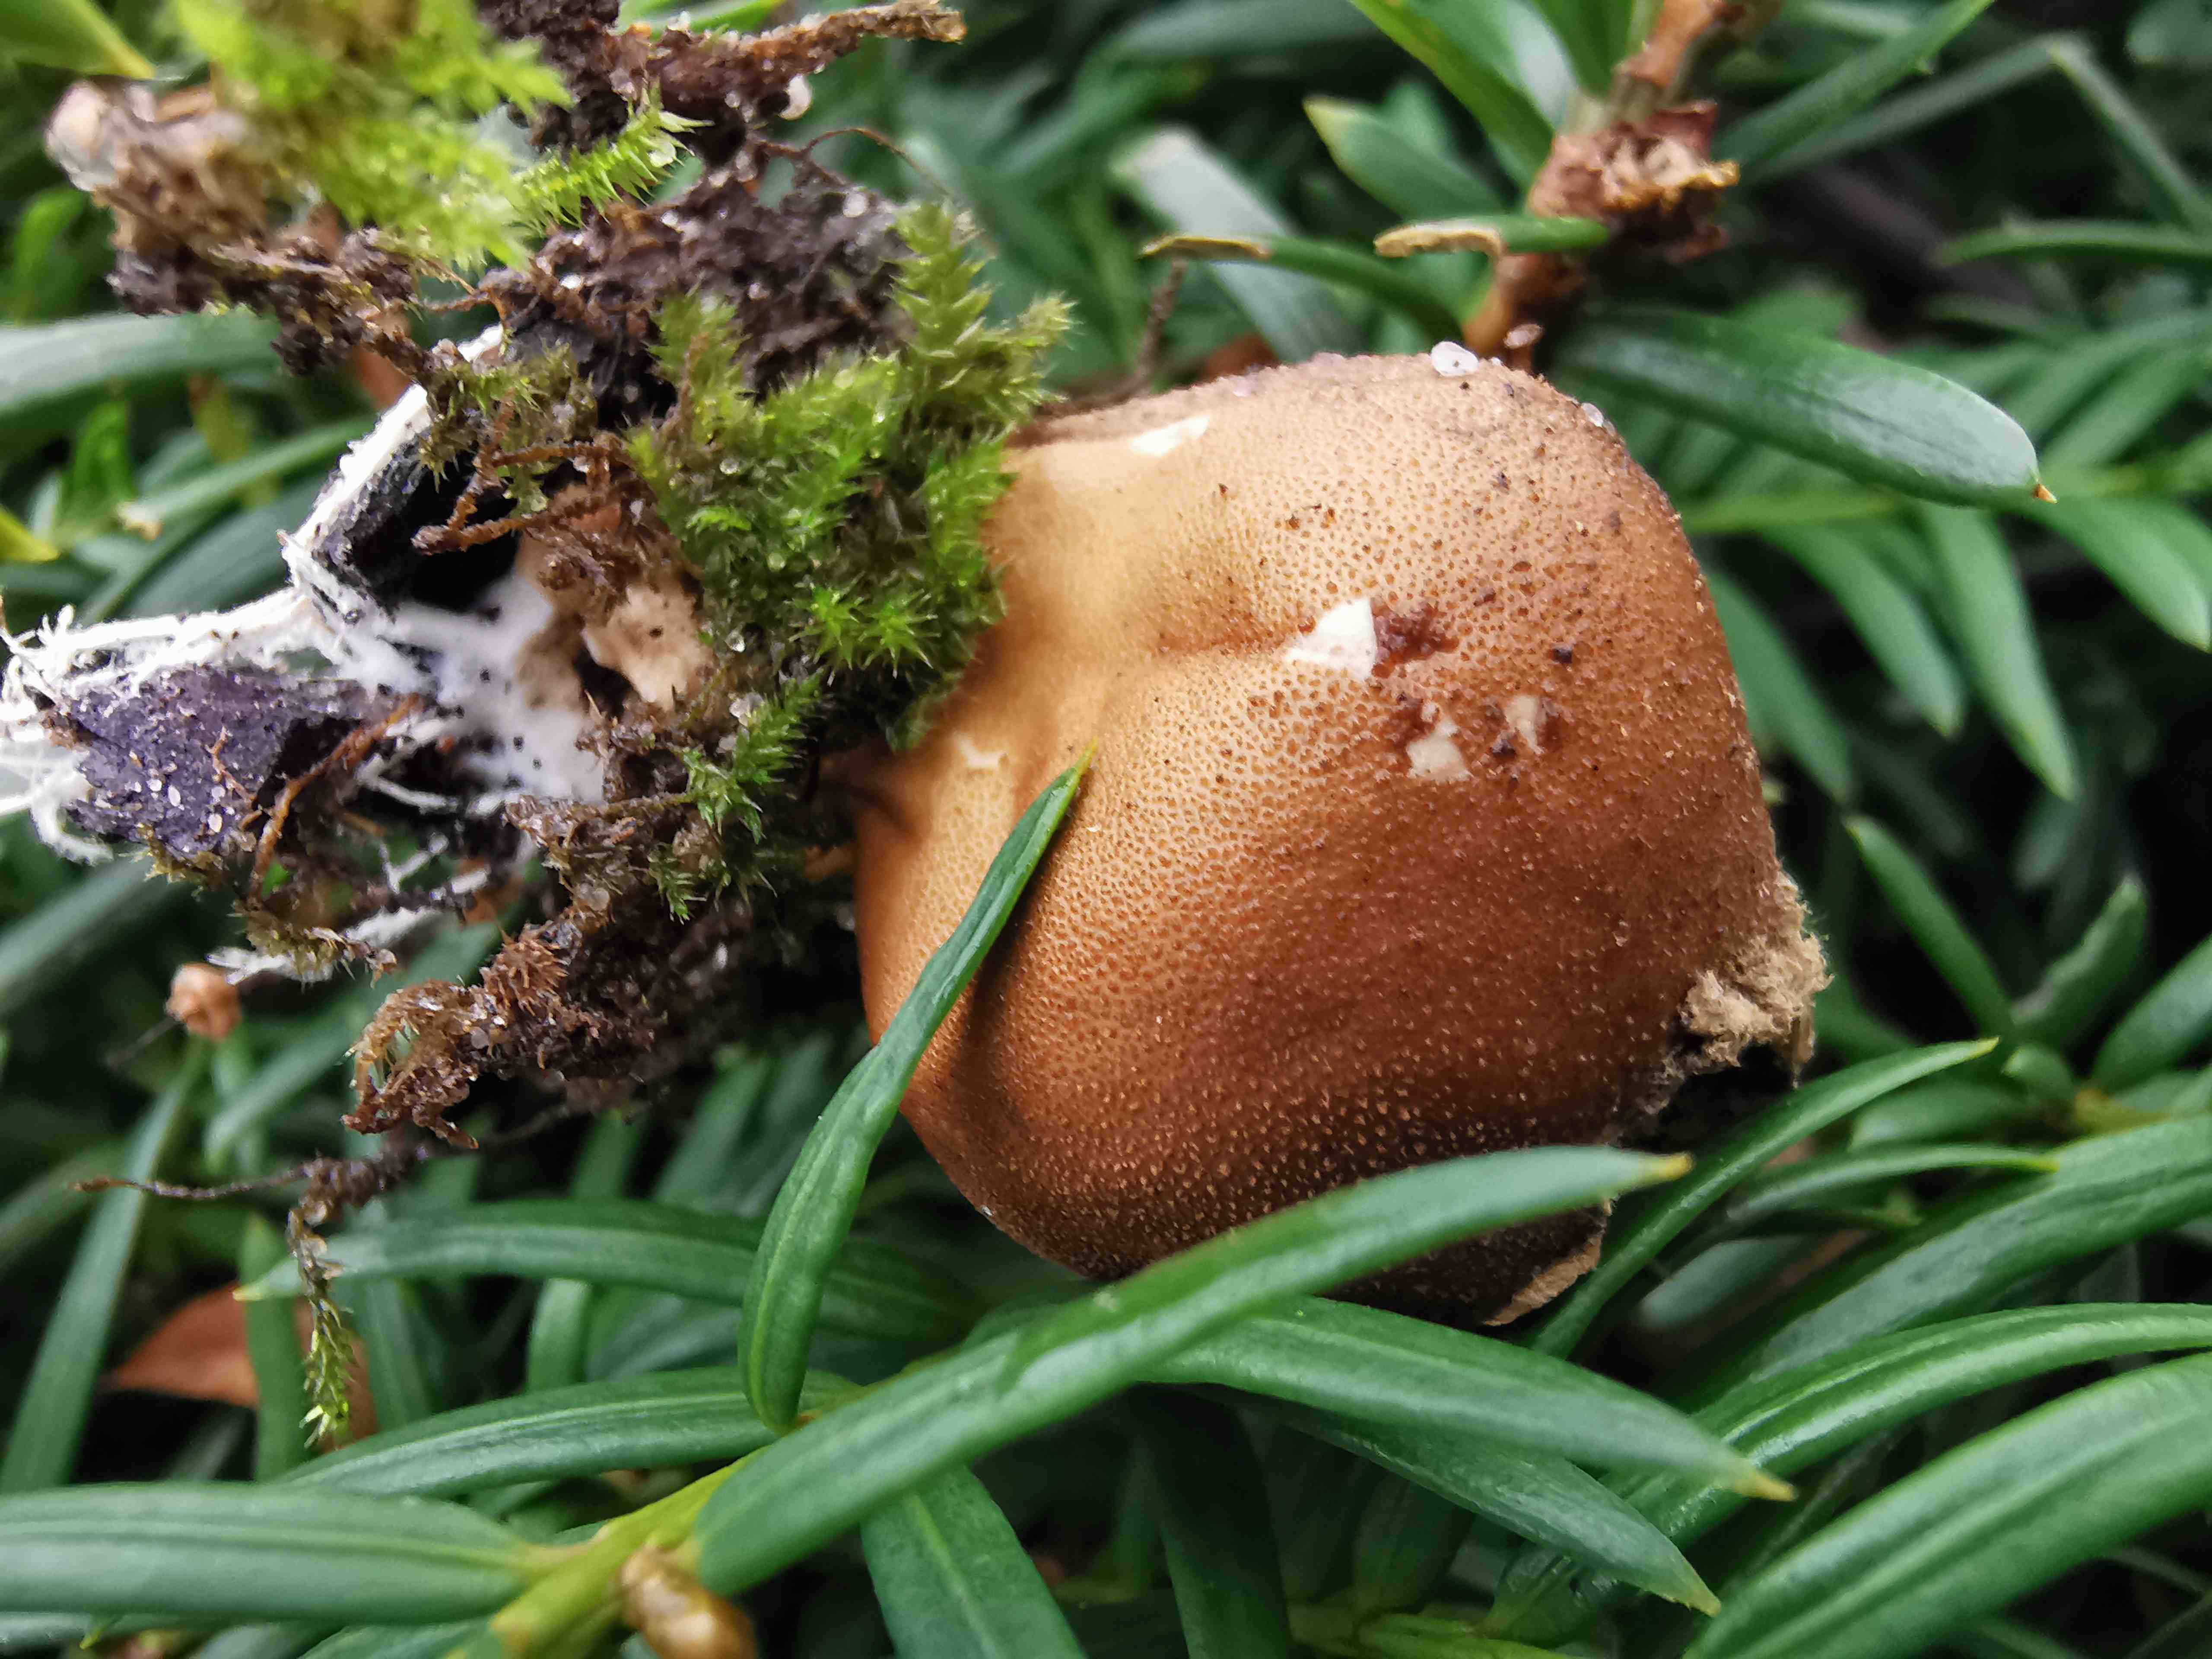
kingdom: Fungi
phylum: Basidiomycota
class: Agaricomycetes
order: Agaricales
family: Lycoperdaceae
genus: Apioperdon
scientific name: Apioperdon pyriforme
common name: pære-støvbold
